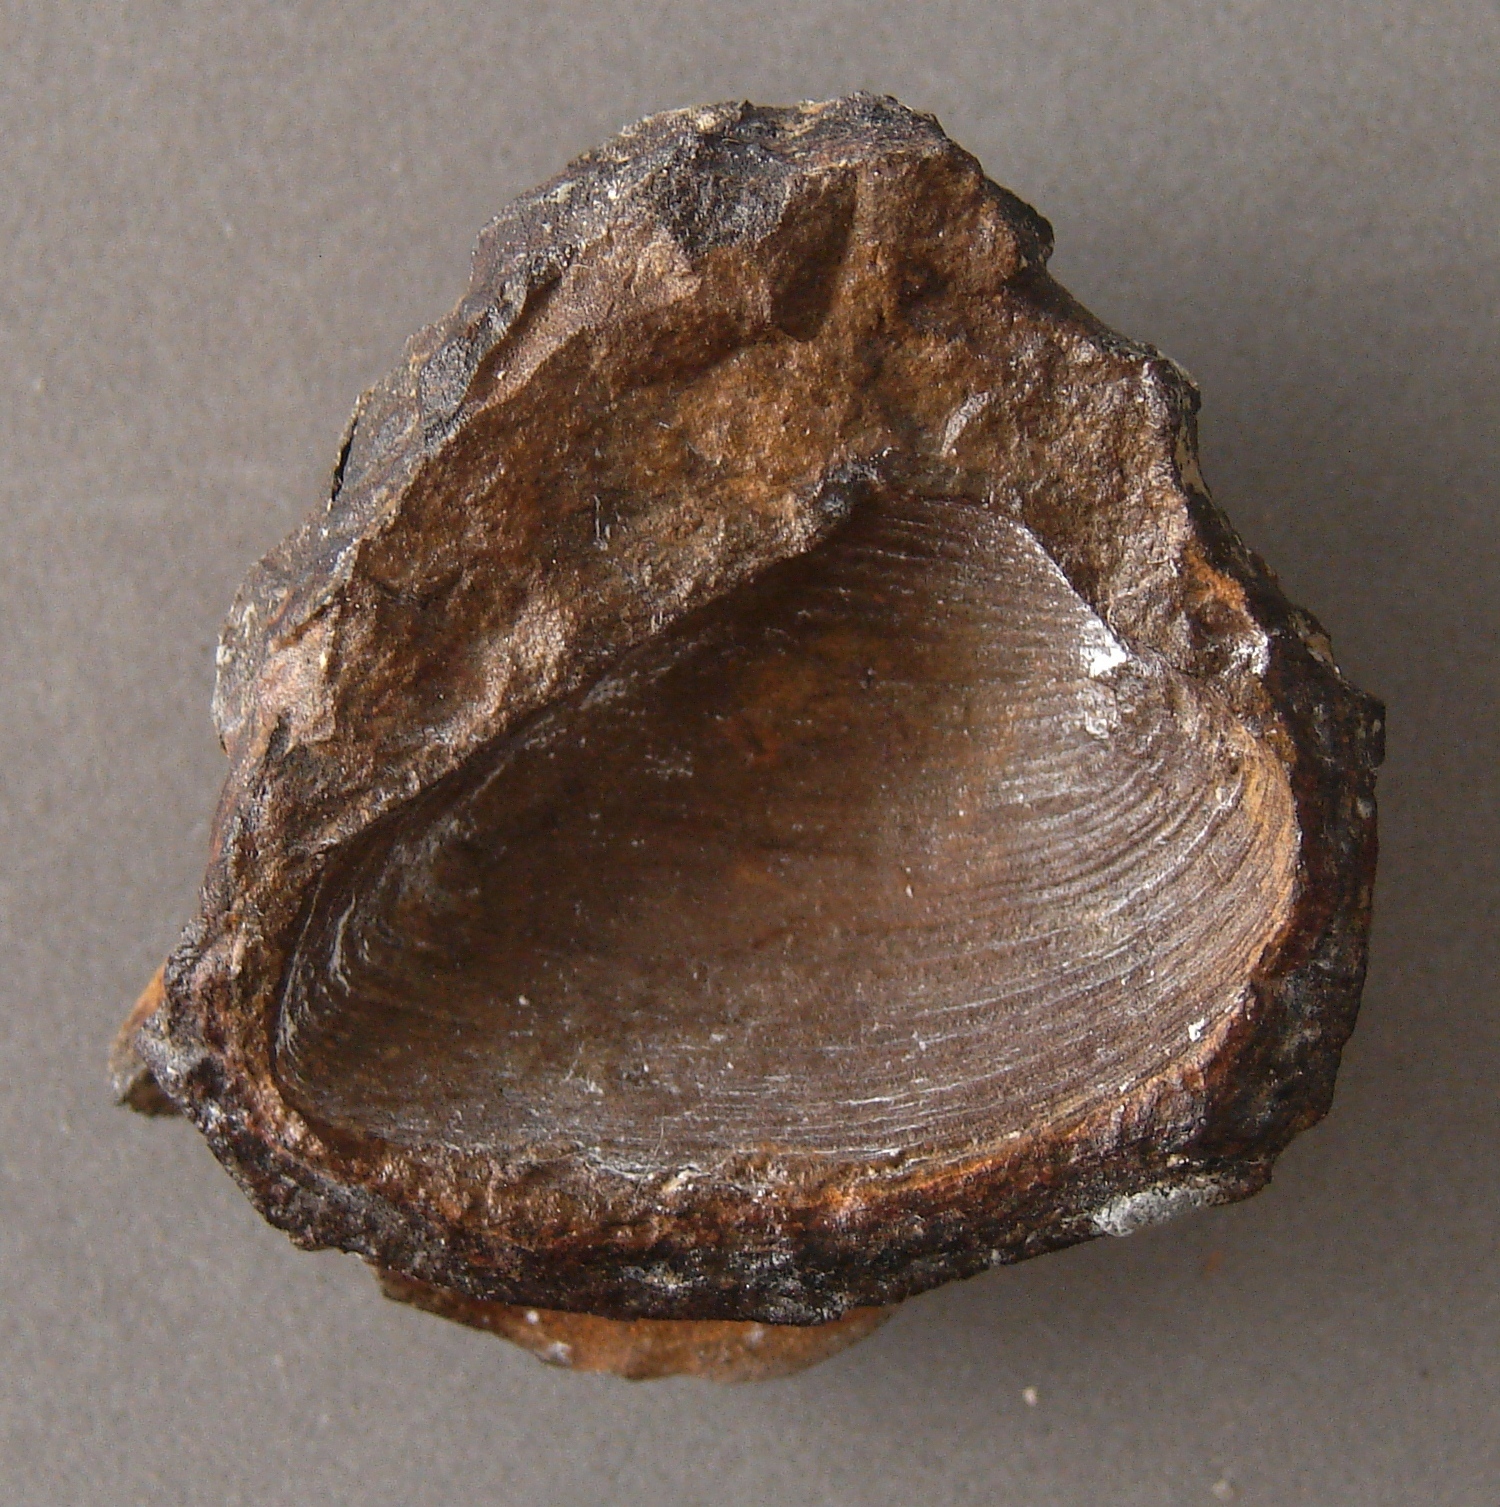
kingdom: Animalia
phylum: Mollusca
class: Bivalvia
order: Sphaeriida
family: Neomiodontidae
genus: Myrene
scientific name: Myrene ferruginea
